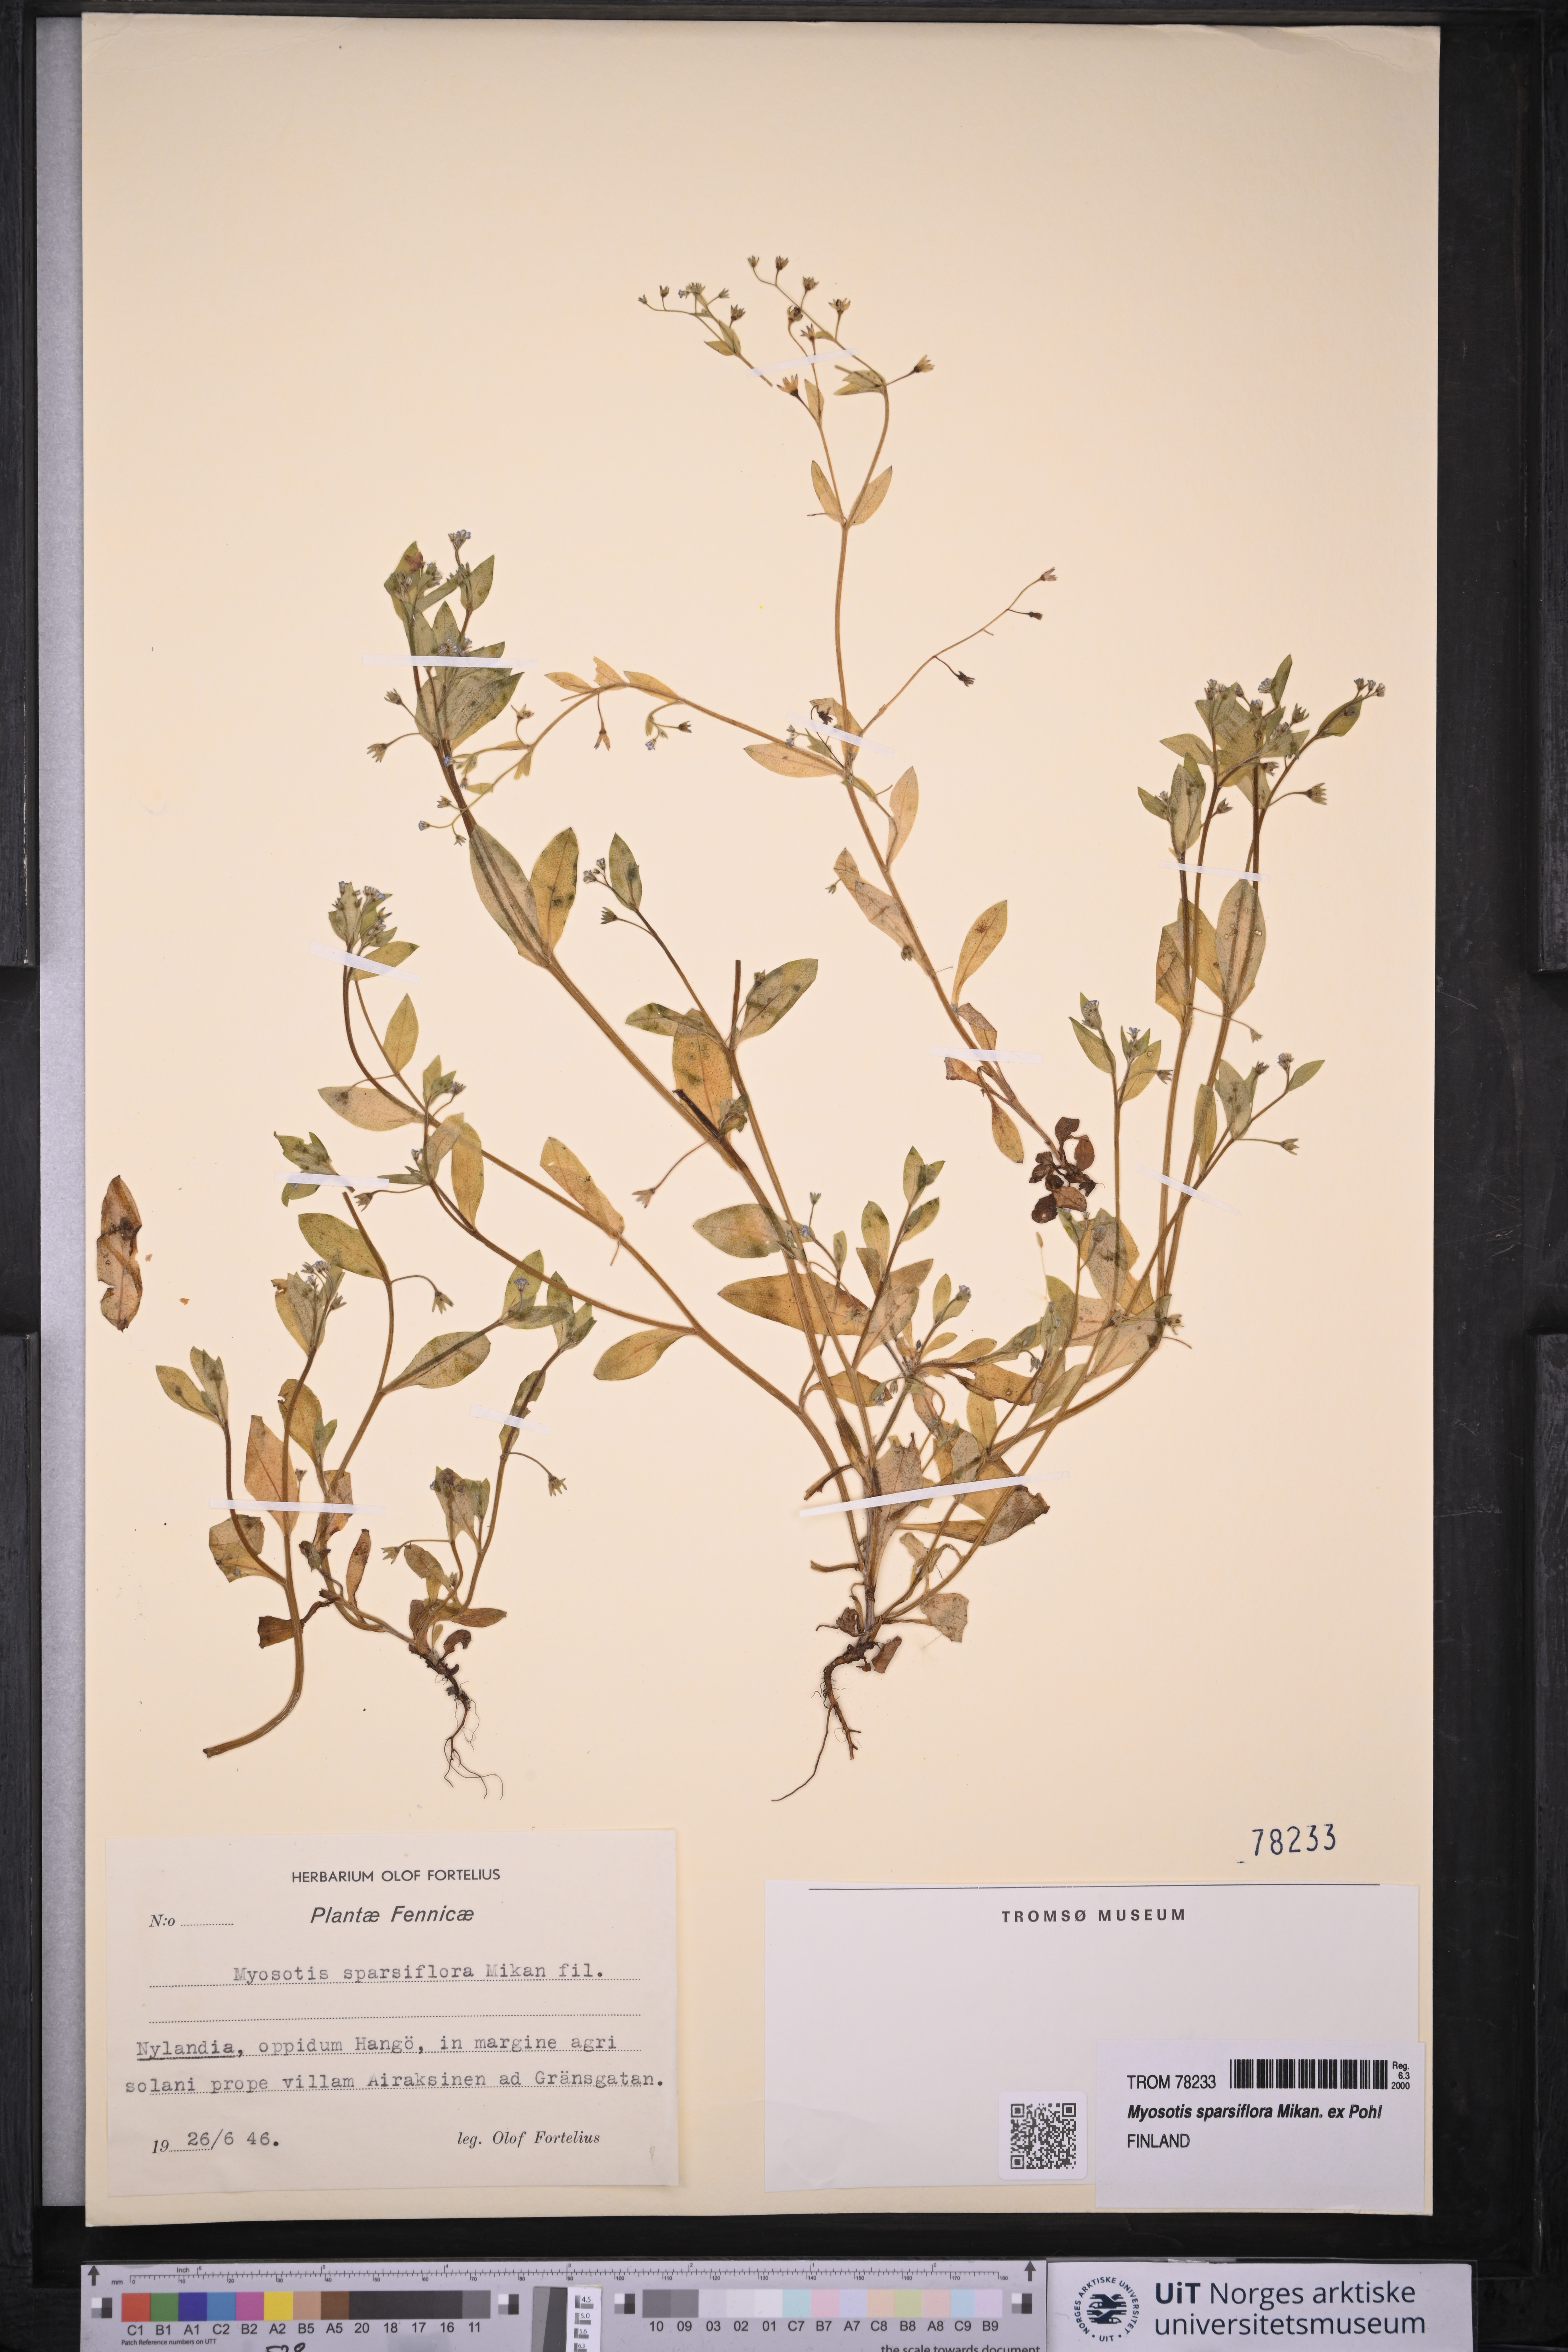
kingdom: Plantae
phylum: Tracheophyta
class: Magnoliopsida
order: Boraginales
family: Boraginaceae
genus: Myosotis
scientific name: Myosotis sparsiflora
